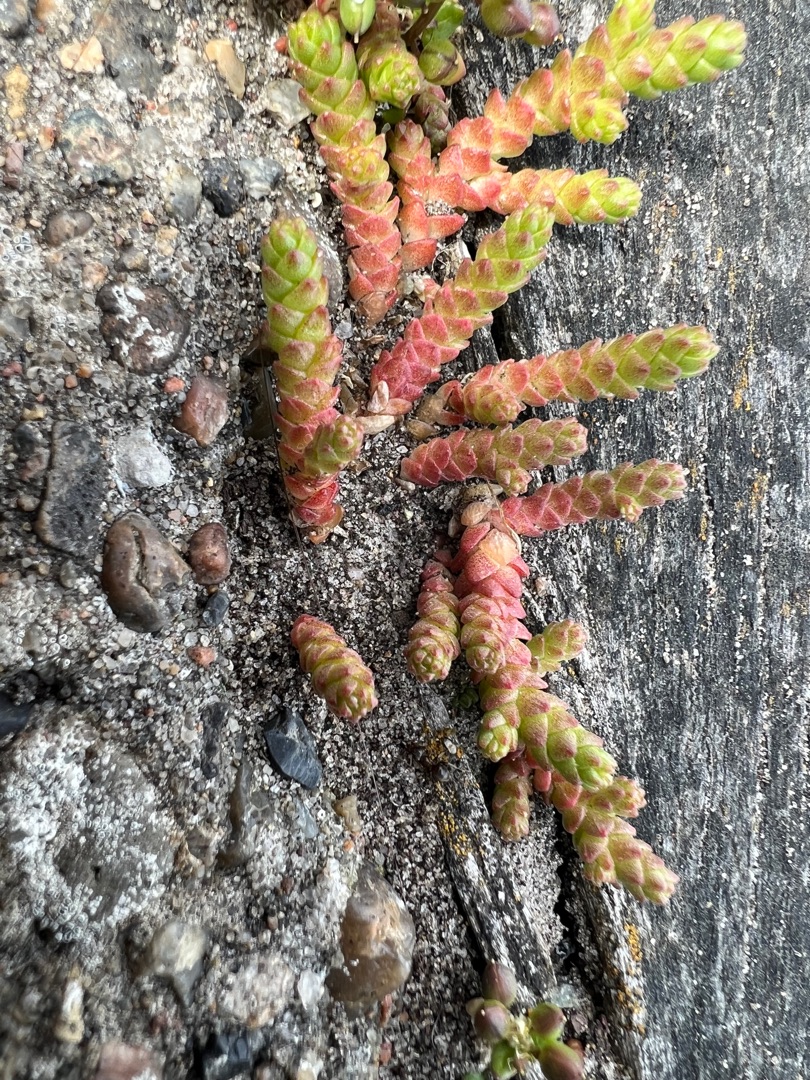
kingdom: Plantae
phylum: Tracheophyta
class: Magnoliopsida
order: Saxifragales
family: Crassulaceae
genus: Sedum
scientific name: Sedum acre
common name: Bidende stenurt
